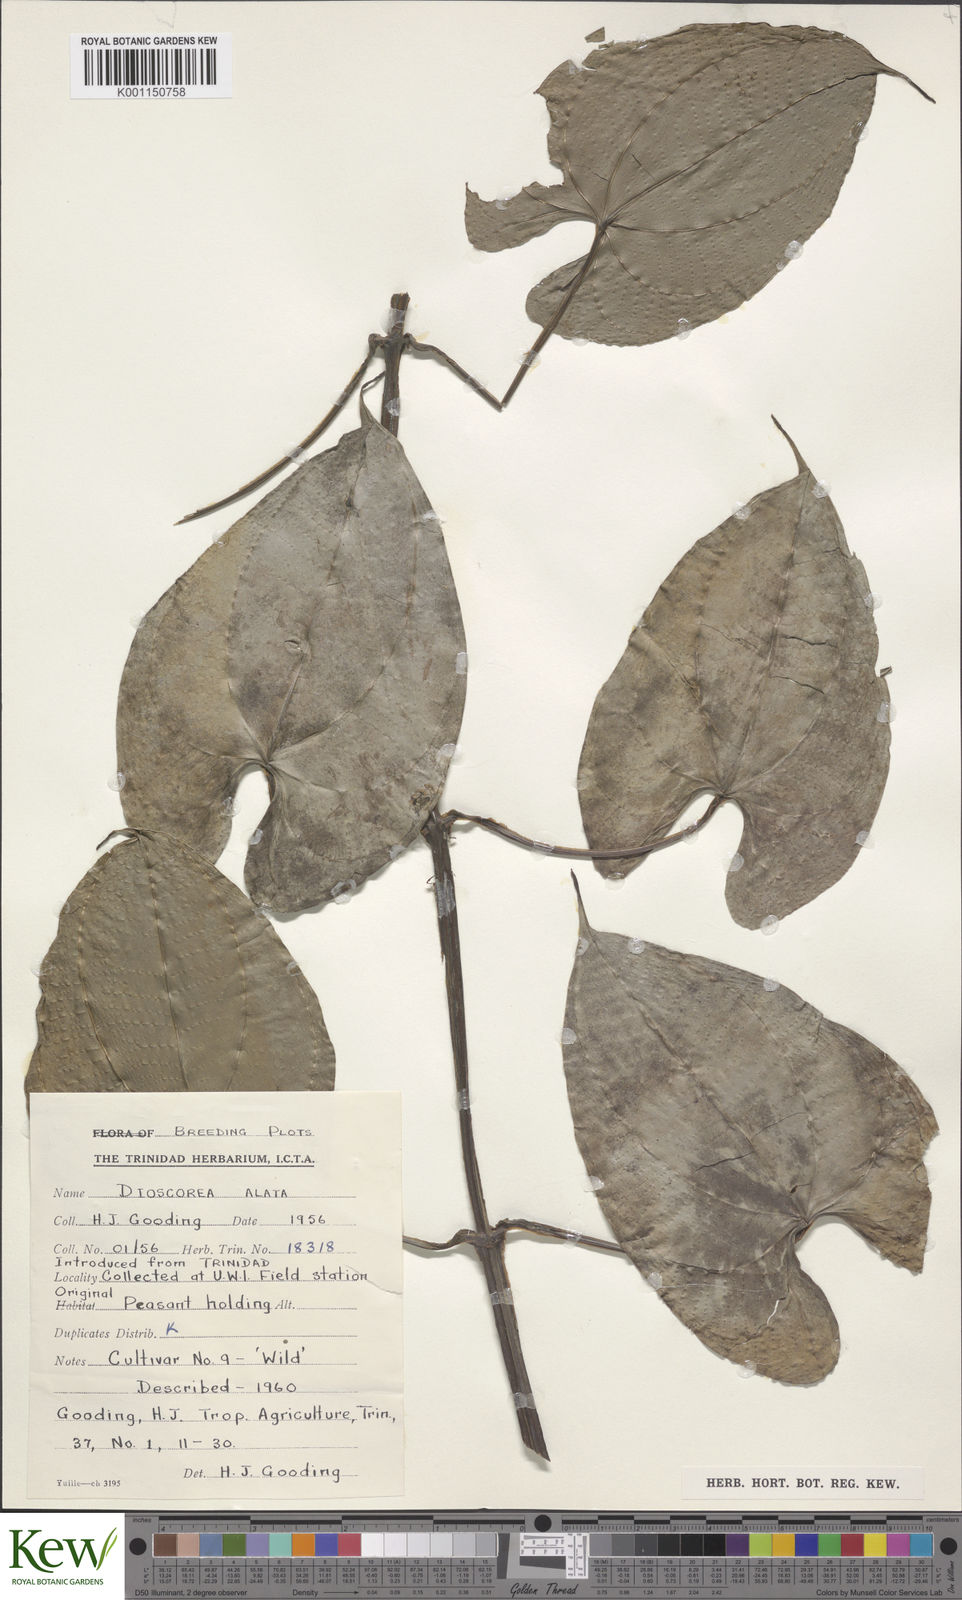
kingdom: Plantae
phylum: Tracheophyta
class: Liliopsida
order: Dioscoreales
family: Dioscoreaceae
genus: Dioscorea
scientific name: Dioscorea alata
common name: Water yam
